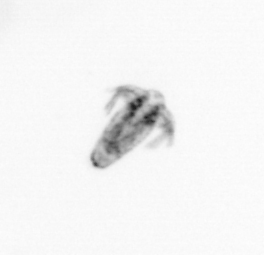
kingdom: Animalia
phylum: Arthropoda
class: Copepoda
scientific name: Copepoda
